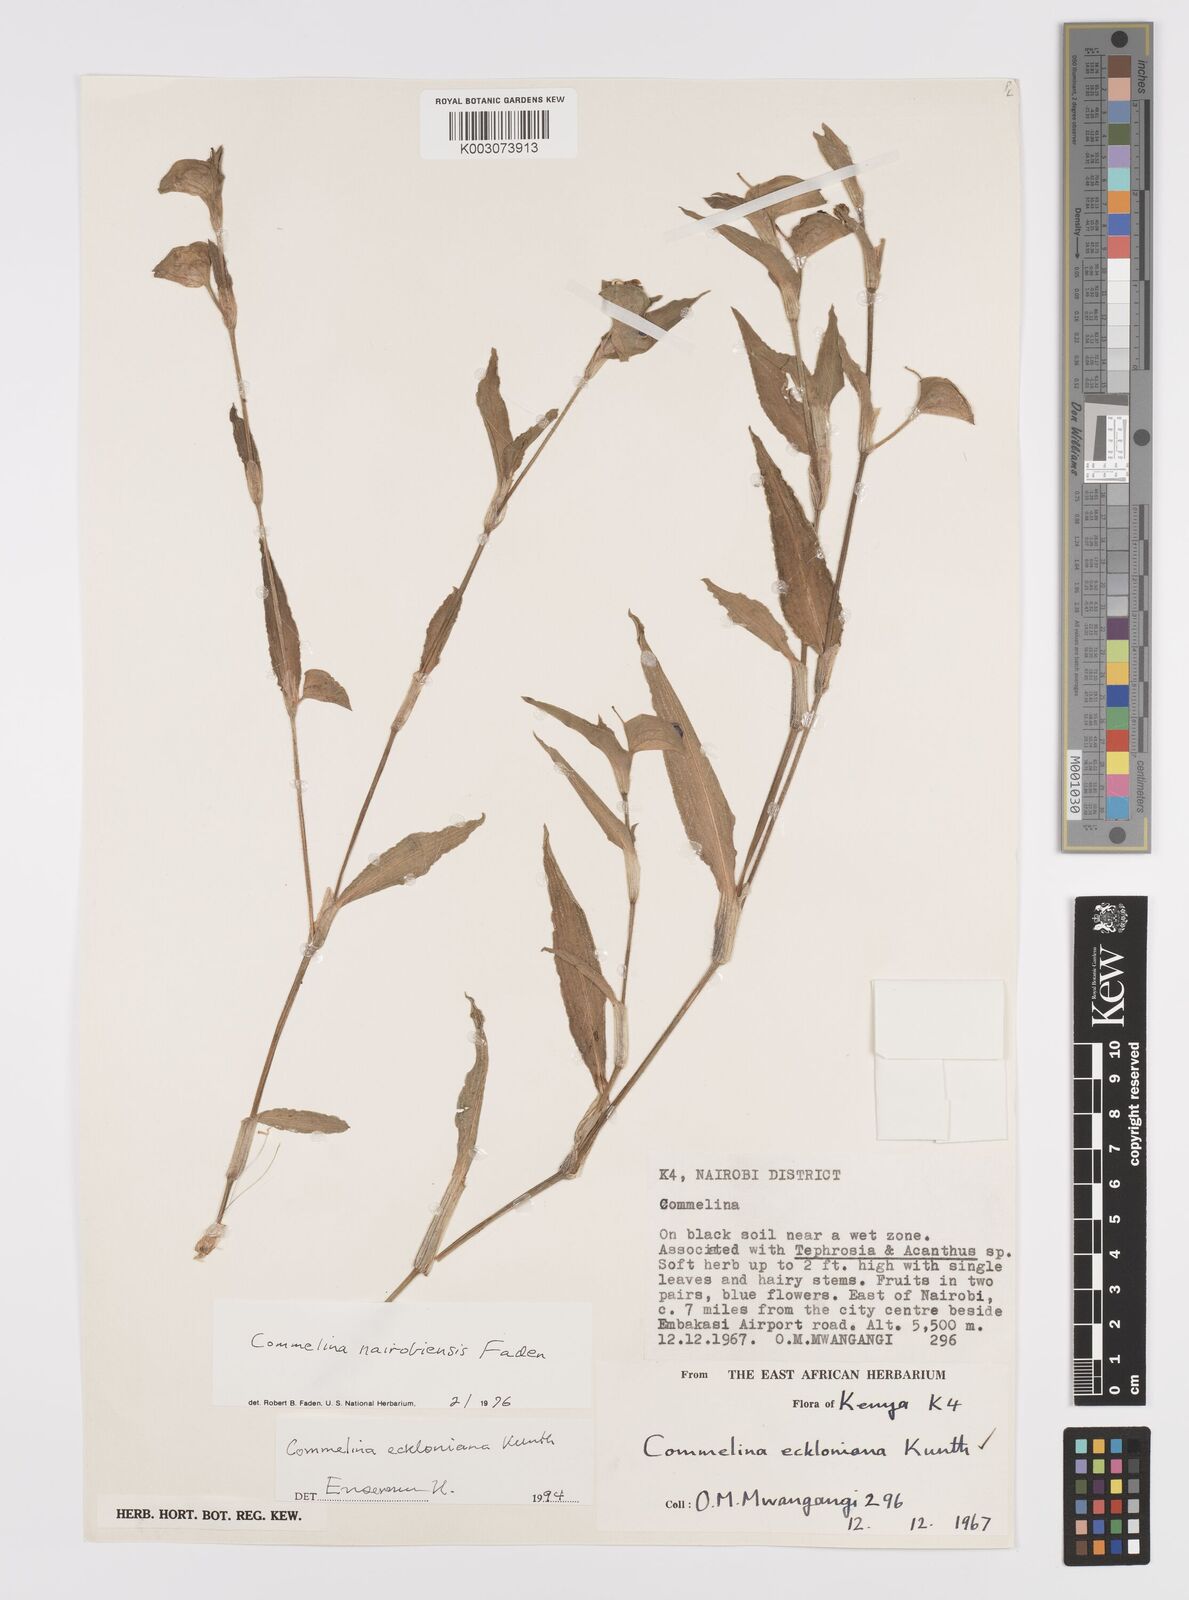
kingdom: Plantae
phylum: Tracheophyta
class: Liliopsida
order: Commelinales
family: Commelinaceae
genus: Commelina
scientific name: Commelina eckloniana
